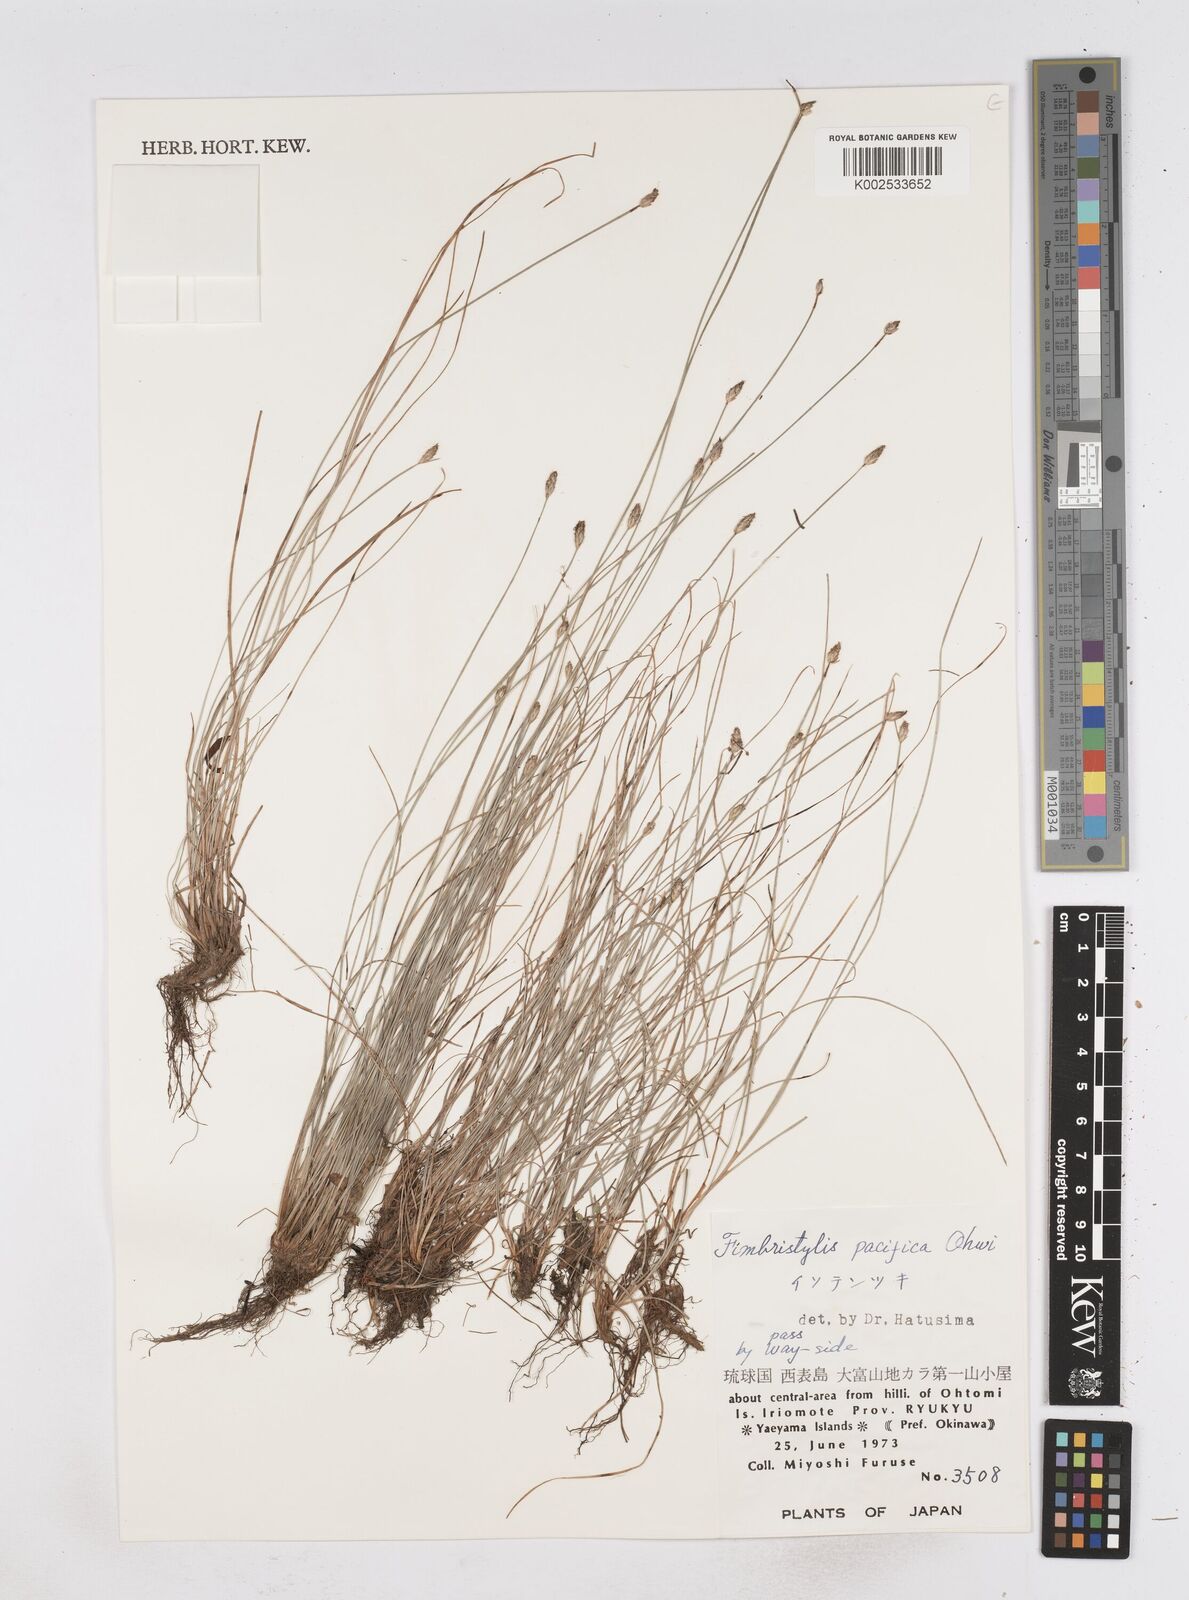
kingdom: Plantae
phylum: Tracheophyta
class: Liliopsida
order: Poales
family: Cyperaceae
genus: Fimbristylis
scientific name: Fimbristylis tristachya
